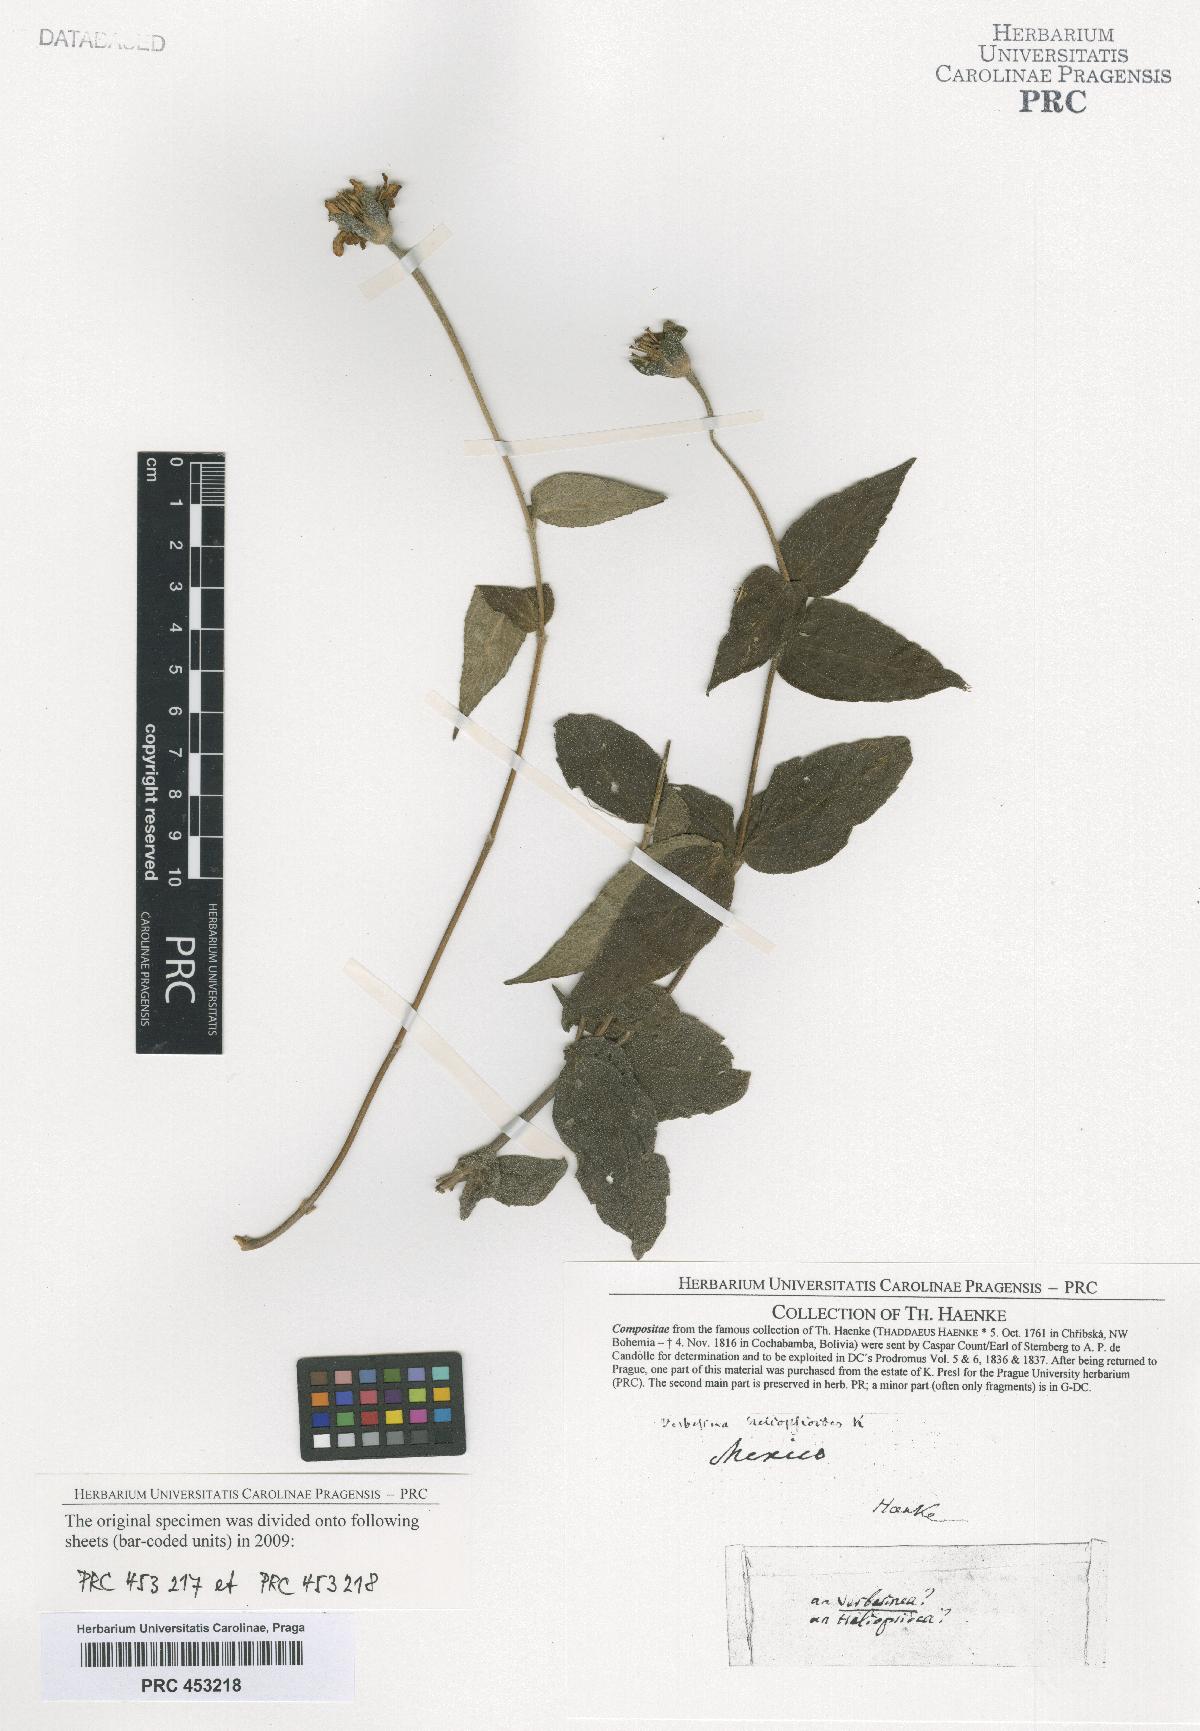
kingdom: Plantae
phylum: Tracheophyta
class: Magnoliopsida
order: Asterales
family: Asteraceae
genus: Verbesina
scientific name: Verbesina
